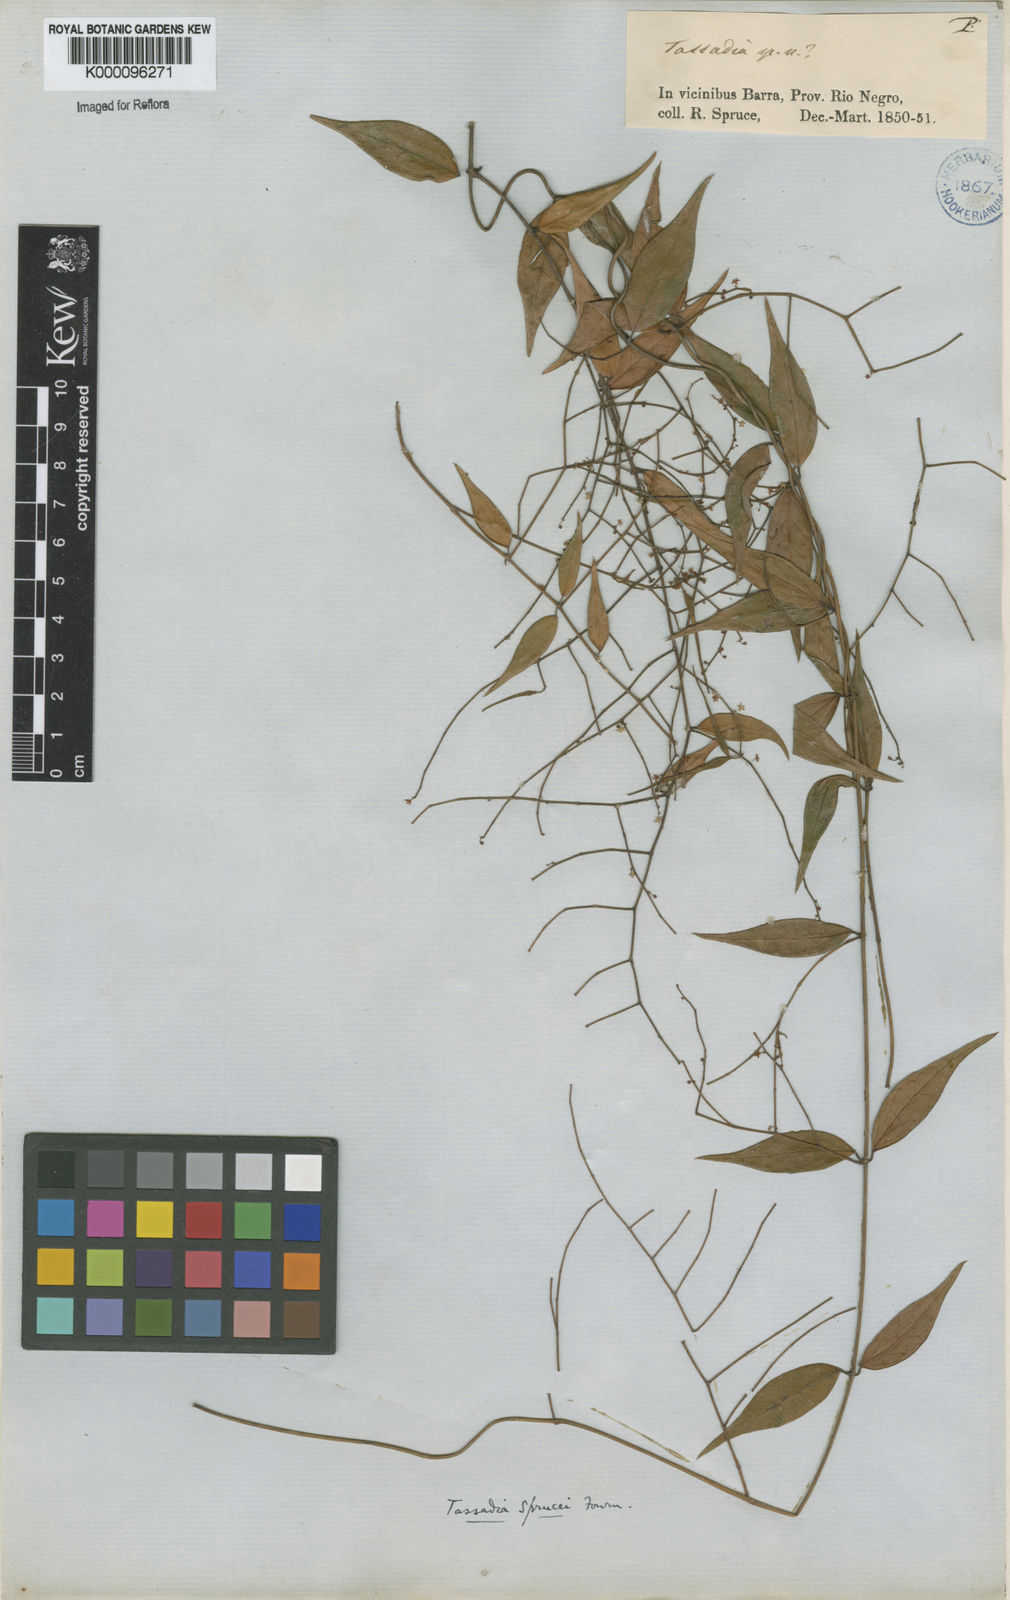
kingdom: Plantae
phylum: Tracheophyta
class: Magnoliopsida
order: Gentianales
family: Apocynaceae
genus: Tassadia
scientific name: Tassadia propinqua
